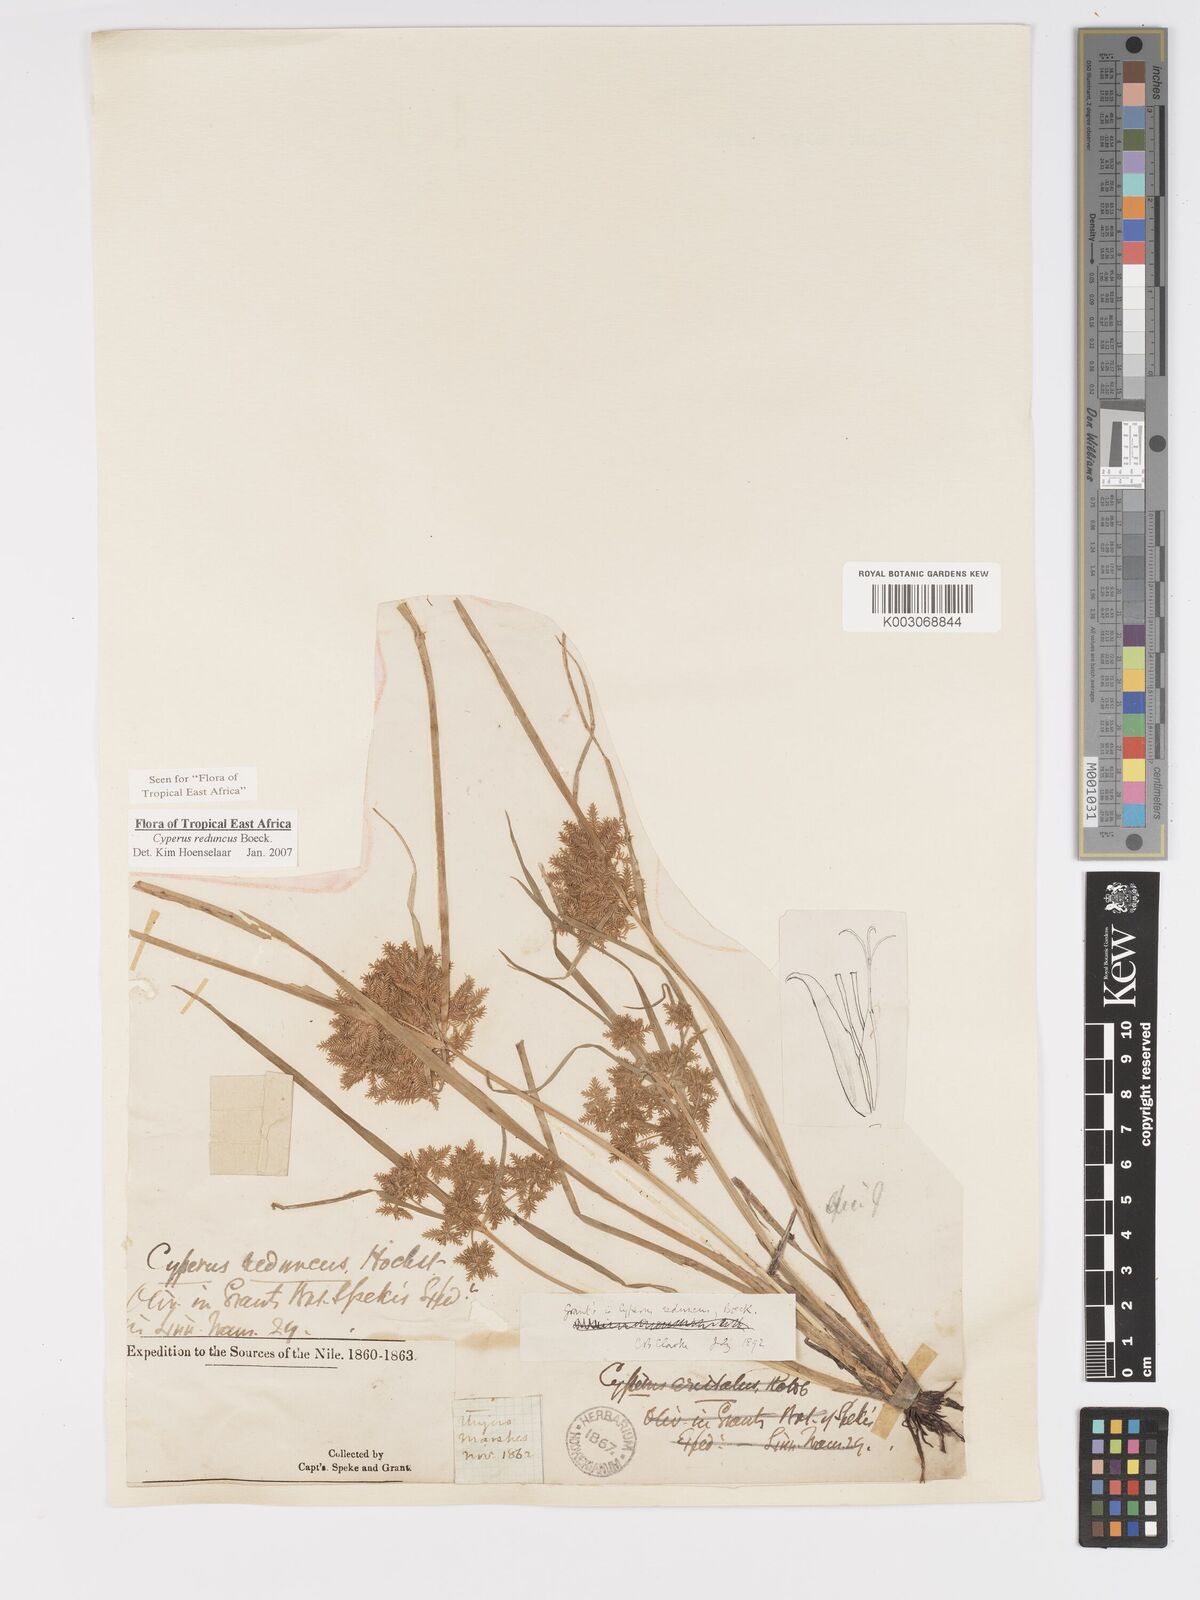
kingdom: Plantae
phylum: Tracheophyta
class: Liliopsida
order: Poales
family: Cyperaceae
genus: Cyperus
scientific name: Cyperus reduncus
